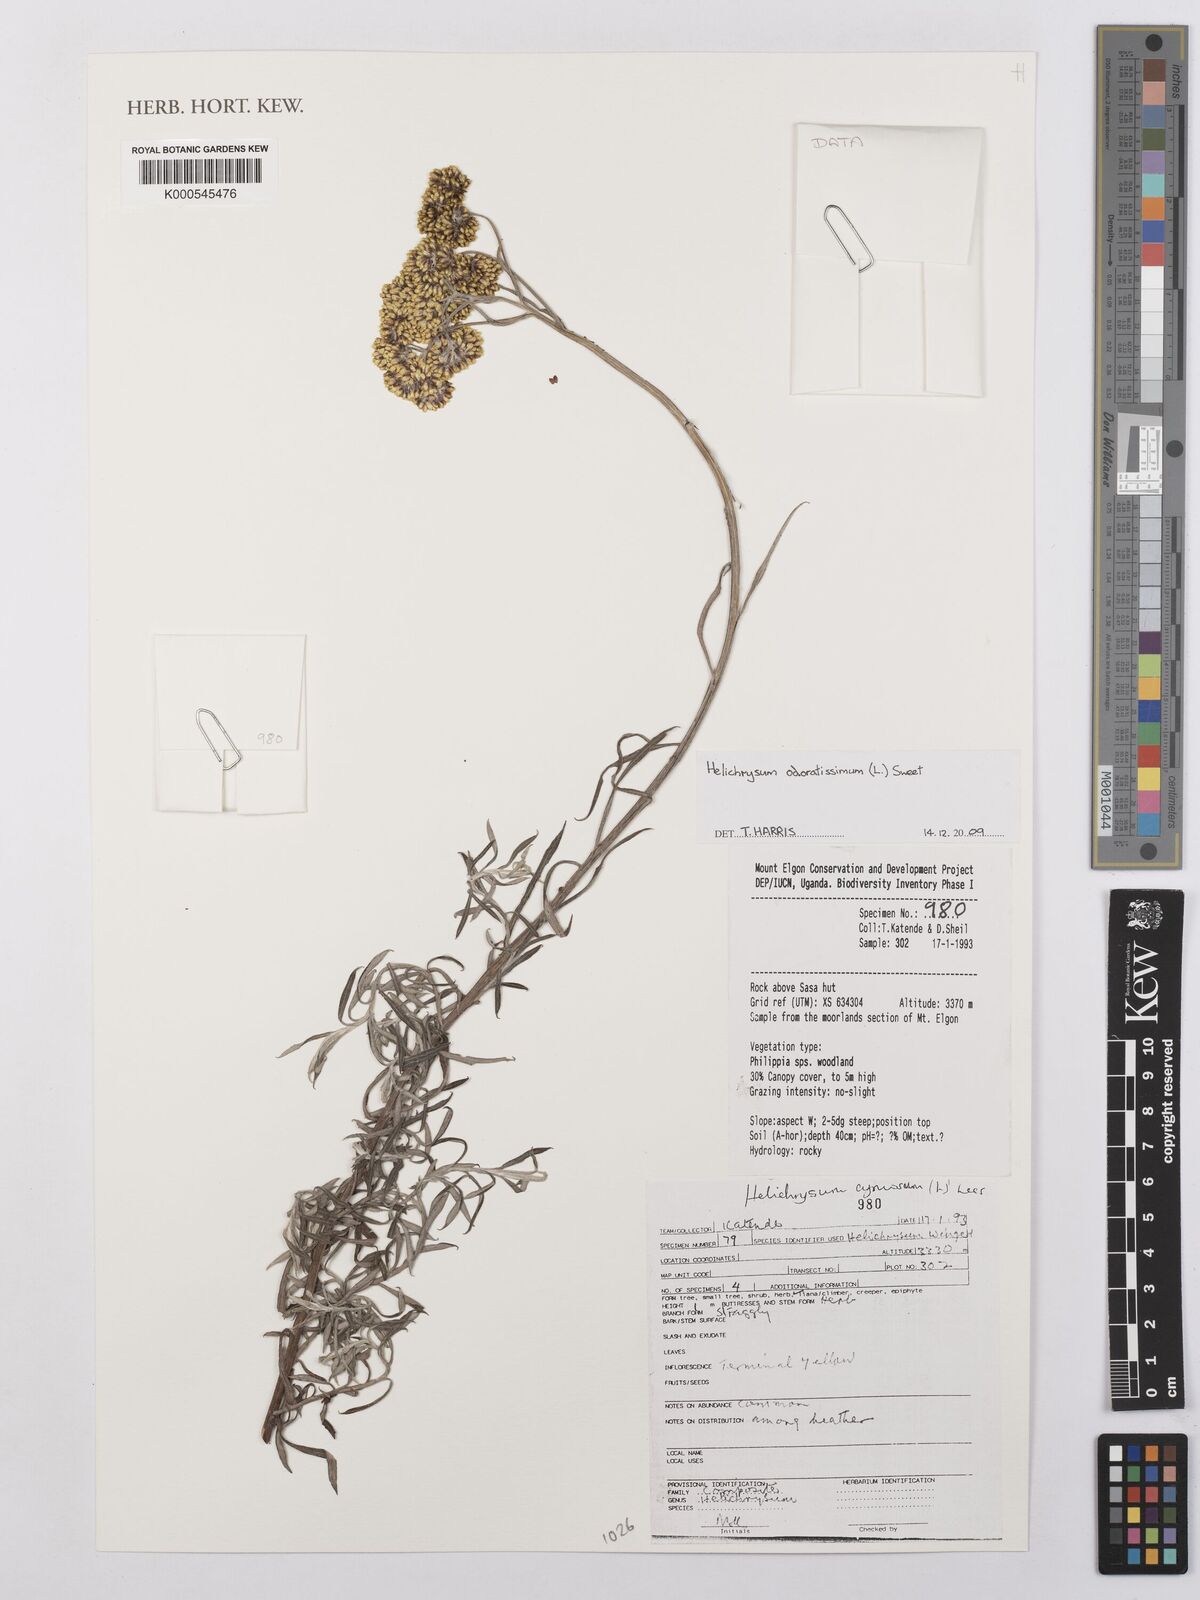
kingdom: Plantae
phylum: Tracheophyta
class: Magnoliopsida
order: Asterales
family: Asteraceae
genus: Helichrysum
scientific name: Helichrysum odoratissimum
